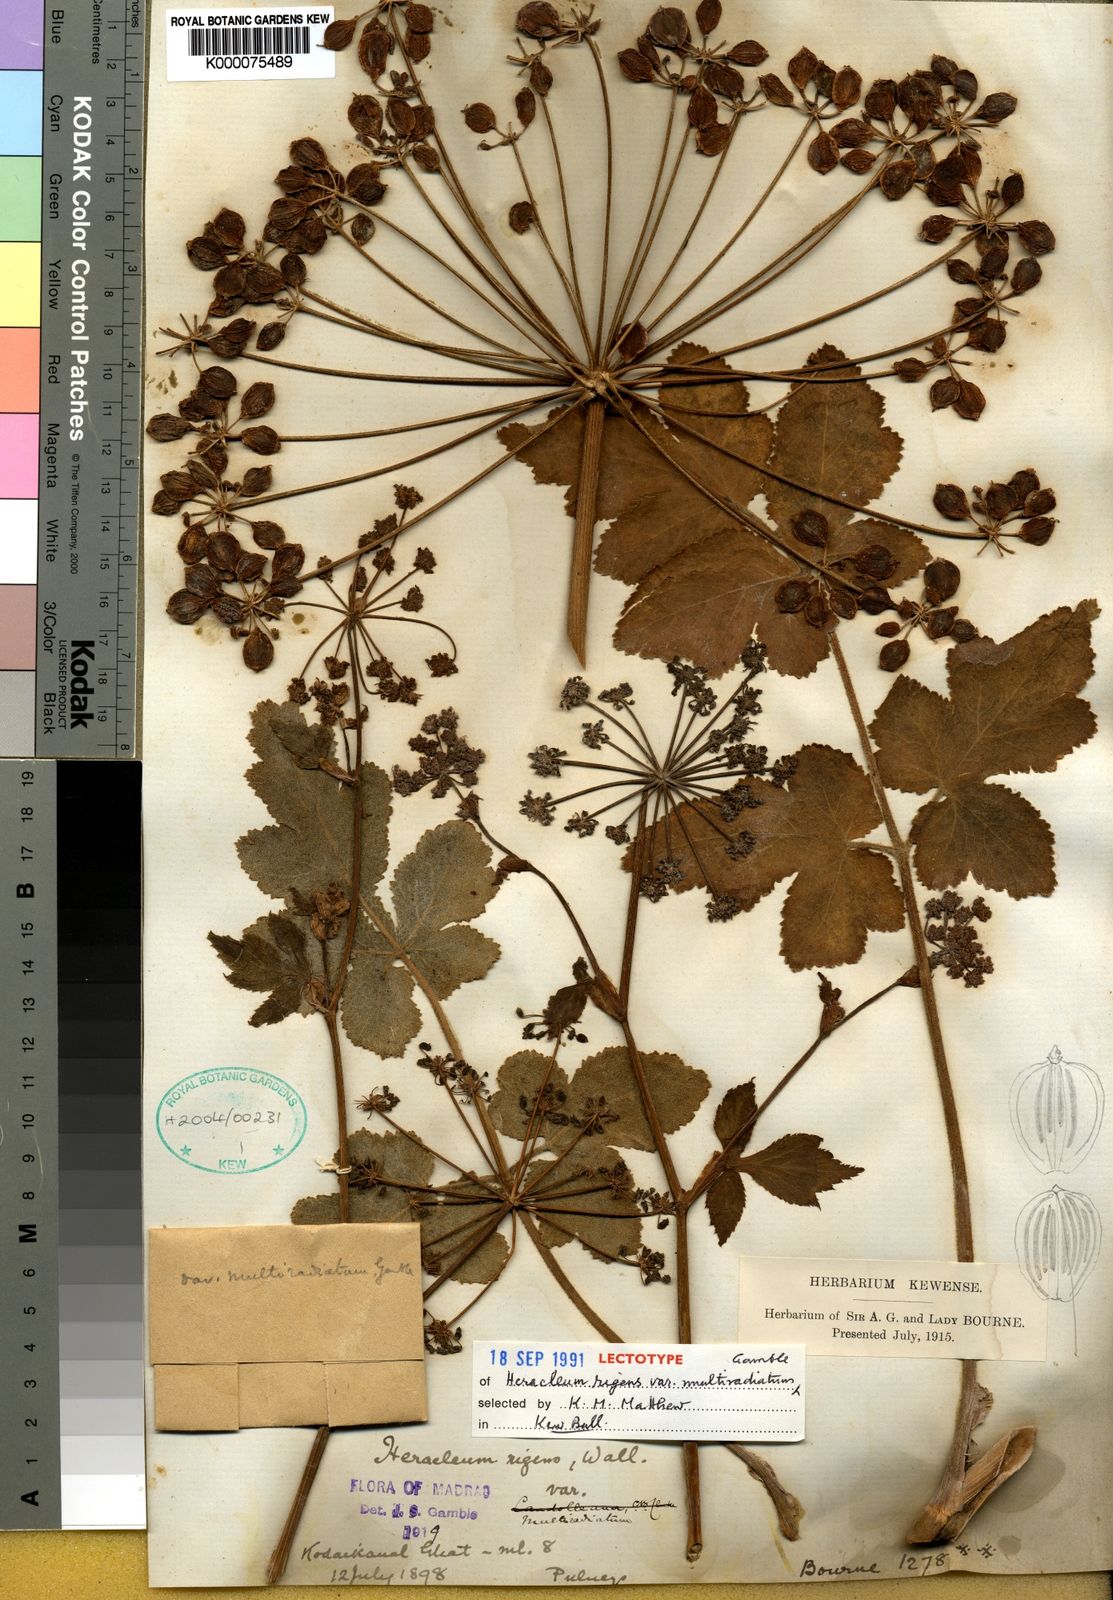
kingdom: Plantae
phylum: Tracheophyta
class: Magnoliopsida
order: Apiales
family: Apiaceae
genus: Heracleum
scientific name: Heracleum
